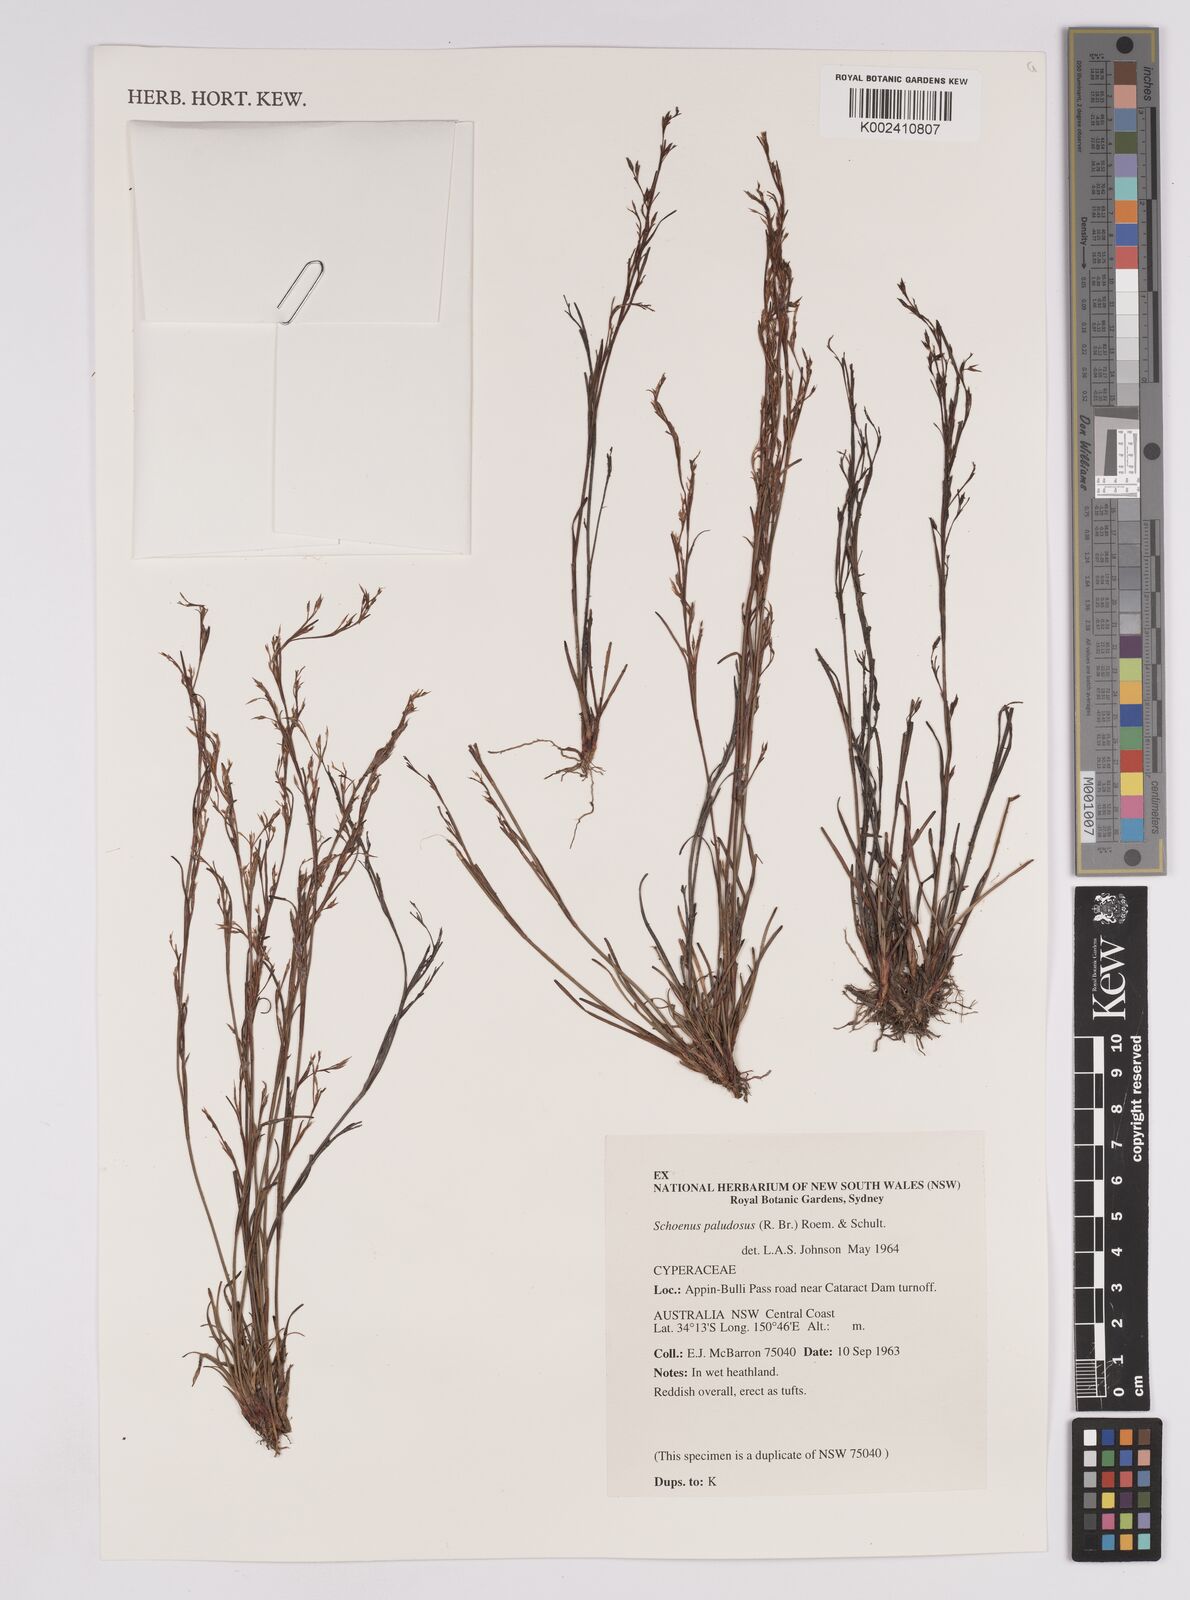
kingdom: Plantae
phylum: Tracheophyta
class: Liliopsida
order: Poales
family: Cyperaceae
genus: Anthelepis
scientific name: Anthelepis paludosa
